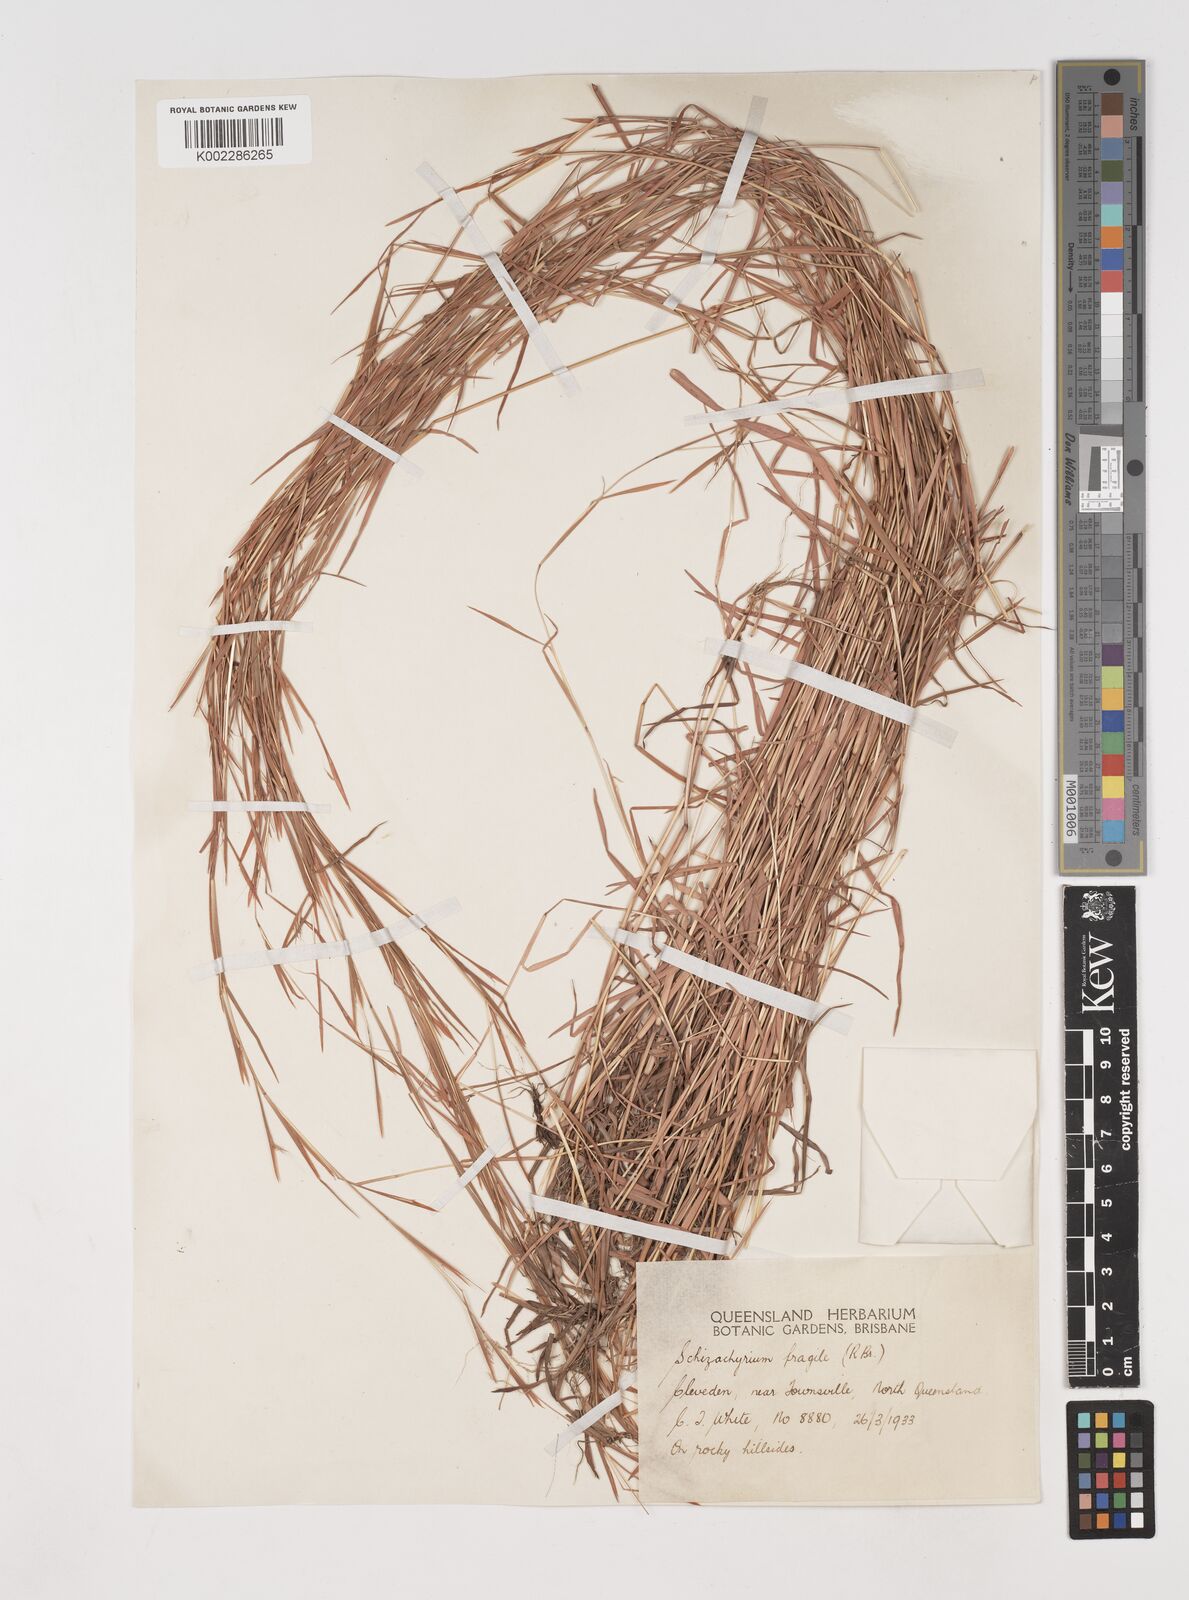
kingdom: Plantae
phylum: Tracheophyta
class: Liliopsida
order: Poales
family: Poaceae
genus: Schizachyrium
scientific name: Schizachyrium pseudeulalia
